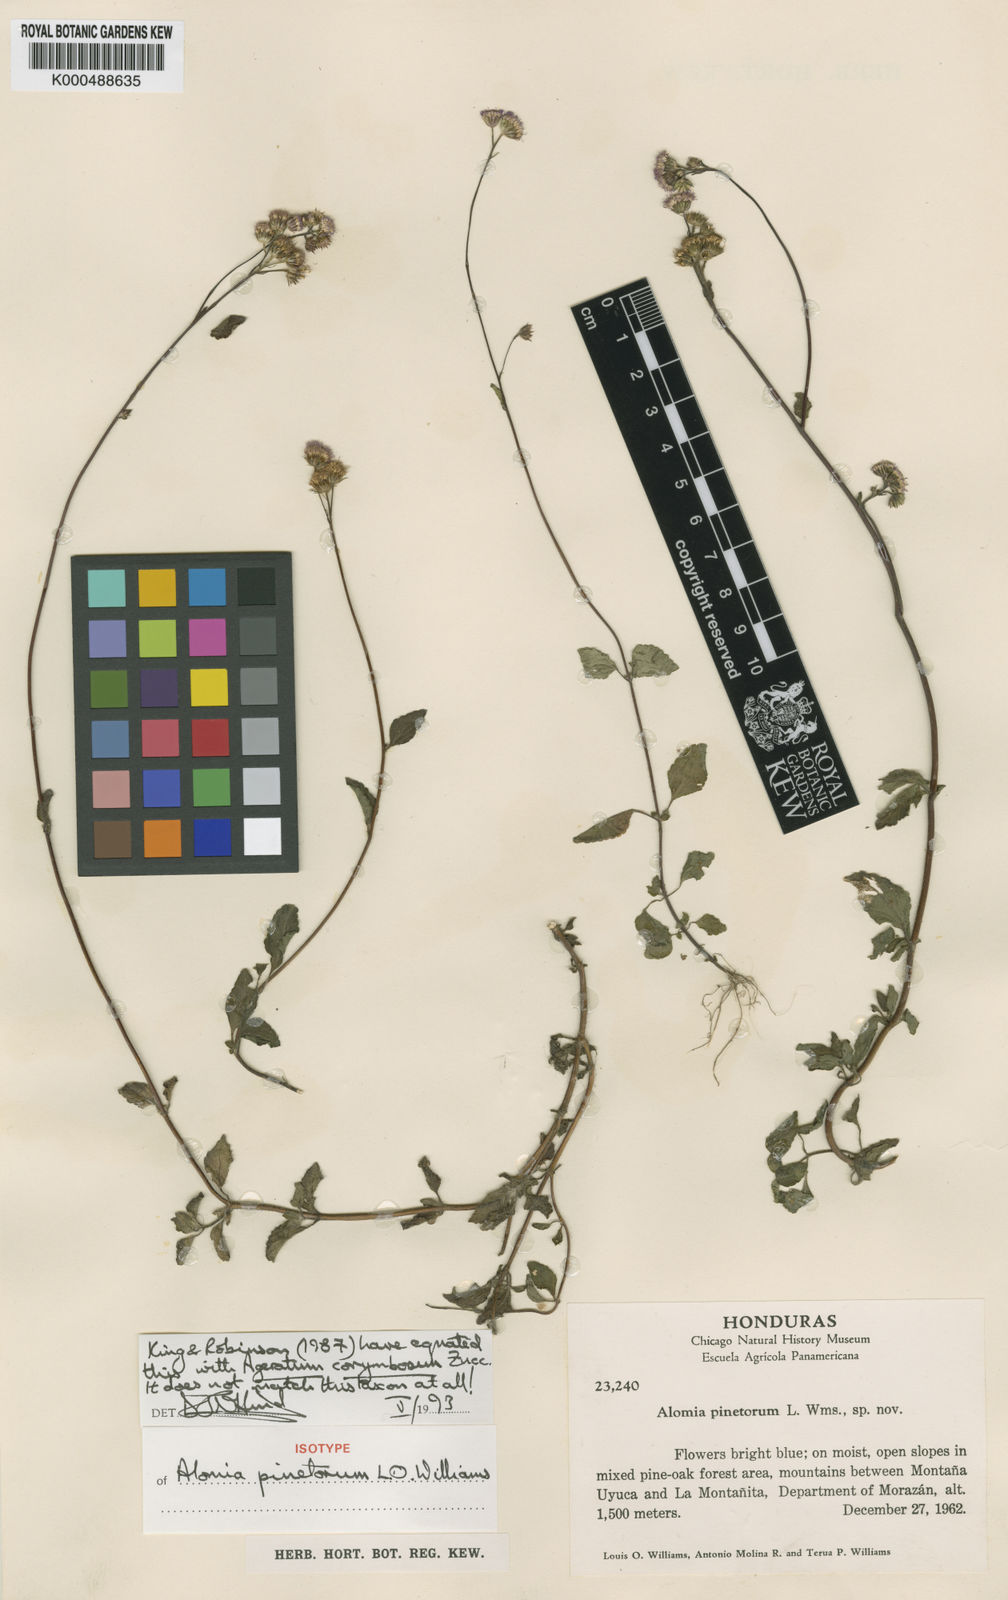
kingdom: Plantae
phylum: Tracheophyta
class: Magnoliopsida
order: Asterales
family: Asteraceae
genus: Ageratum
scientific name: Ageratum corymbosum
